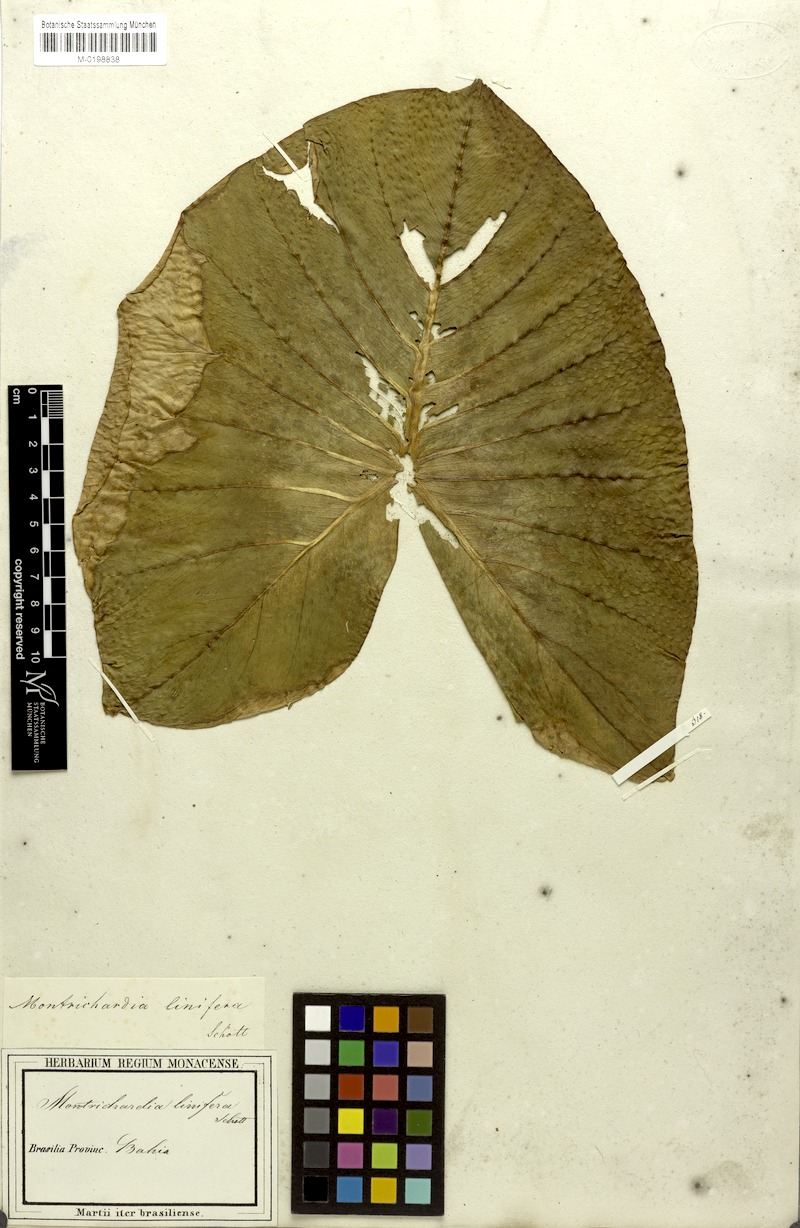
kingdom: Plantae
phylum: Tracheophyta
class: Liliopsida
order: Alismatales
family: Araceae
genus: Montrichardia
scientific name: Montrichardia linifera
